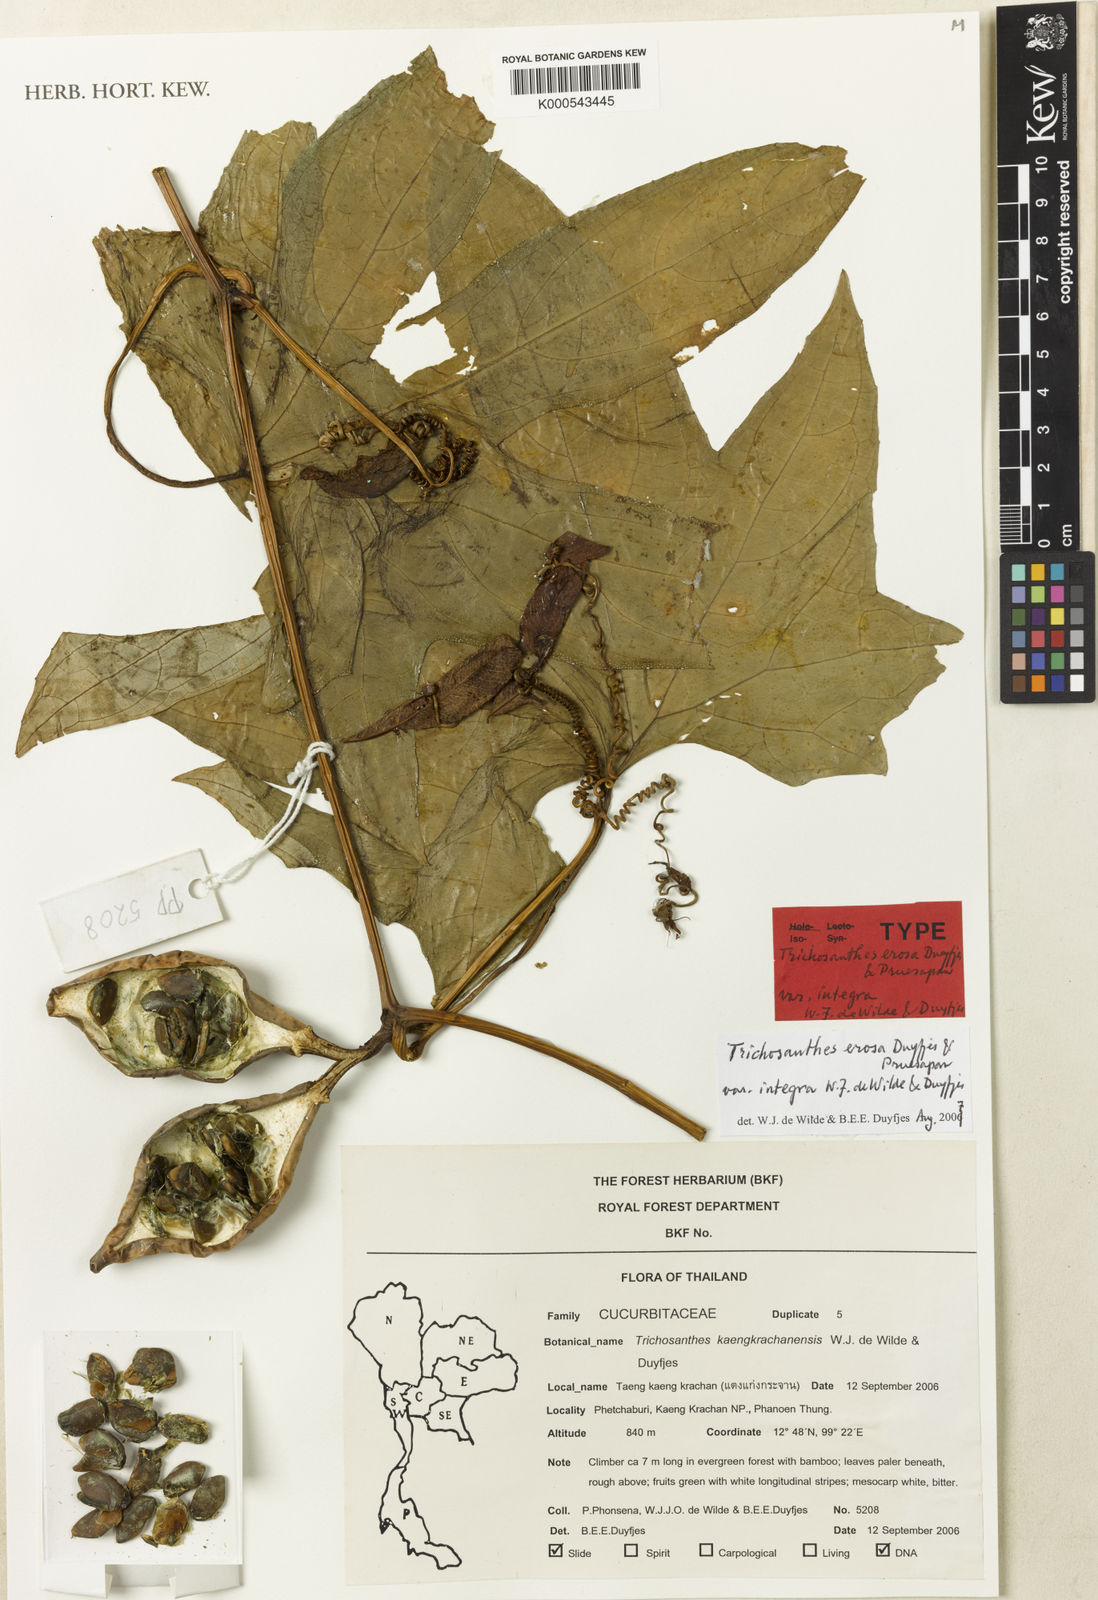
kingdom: Plantae
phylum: Tracheophyta
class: Magnoliopsida
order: Cucurbitales
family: Cucurbitaceae
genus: Trichosanthes
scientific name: Trichosanthes erosa
